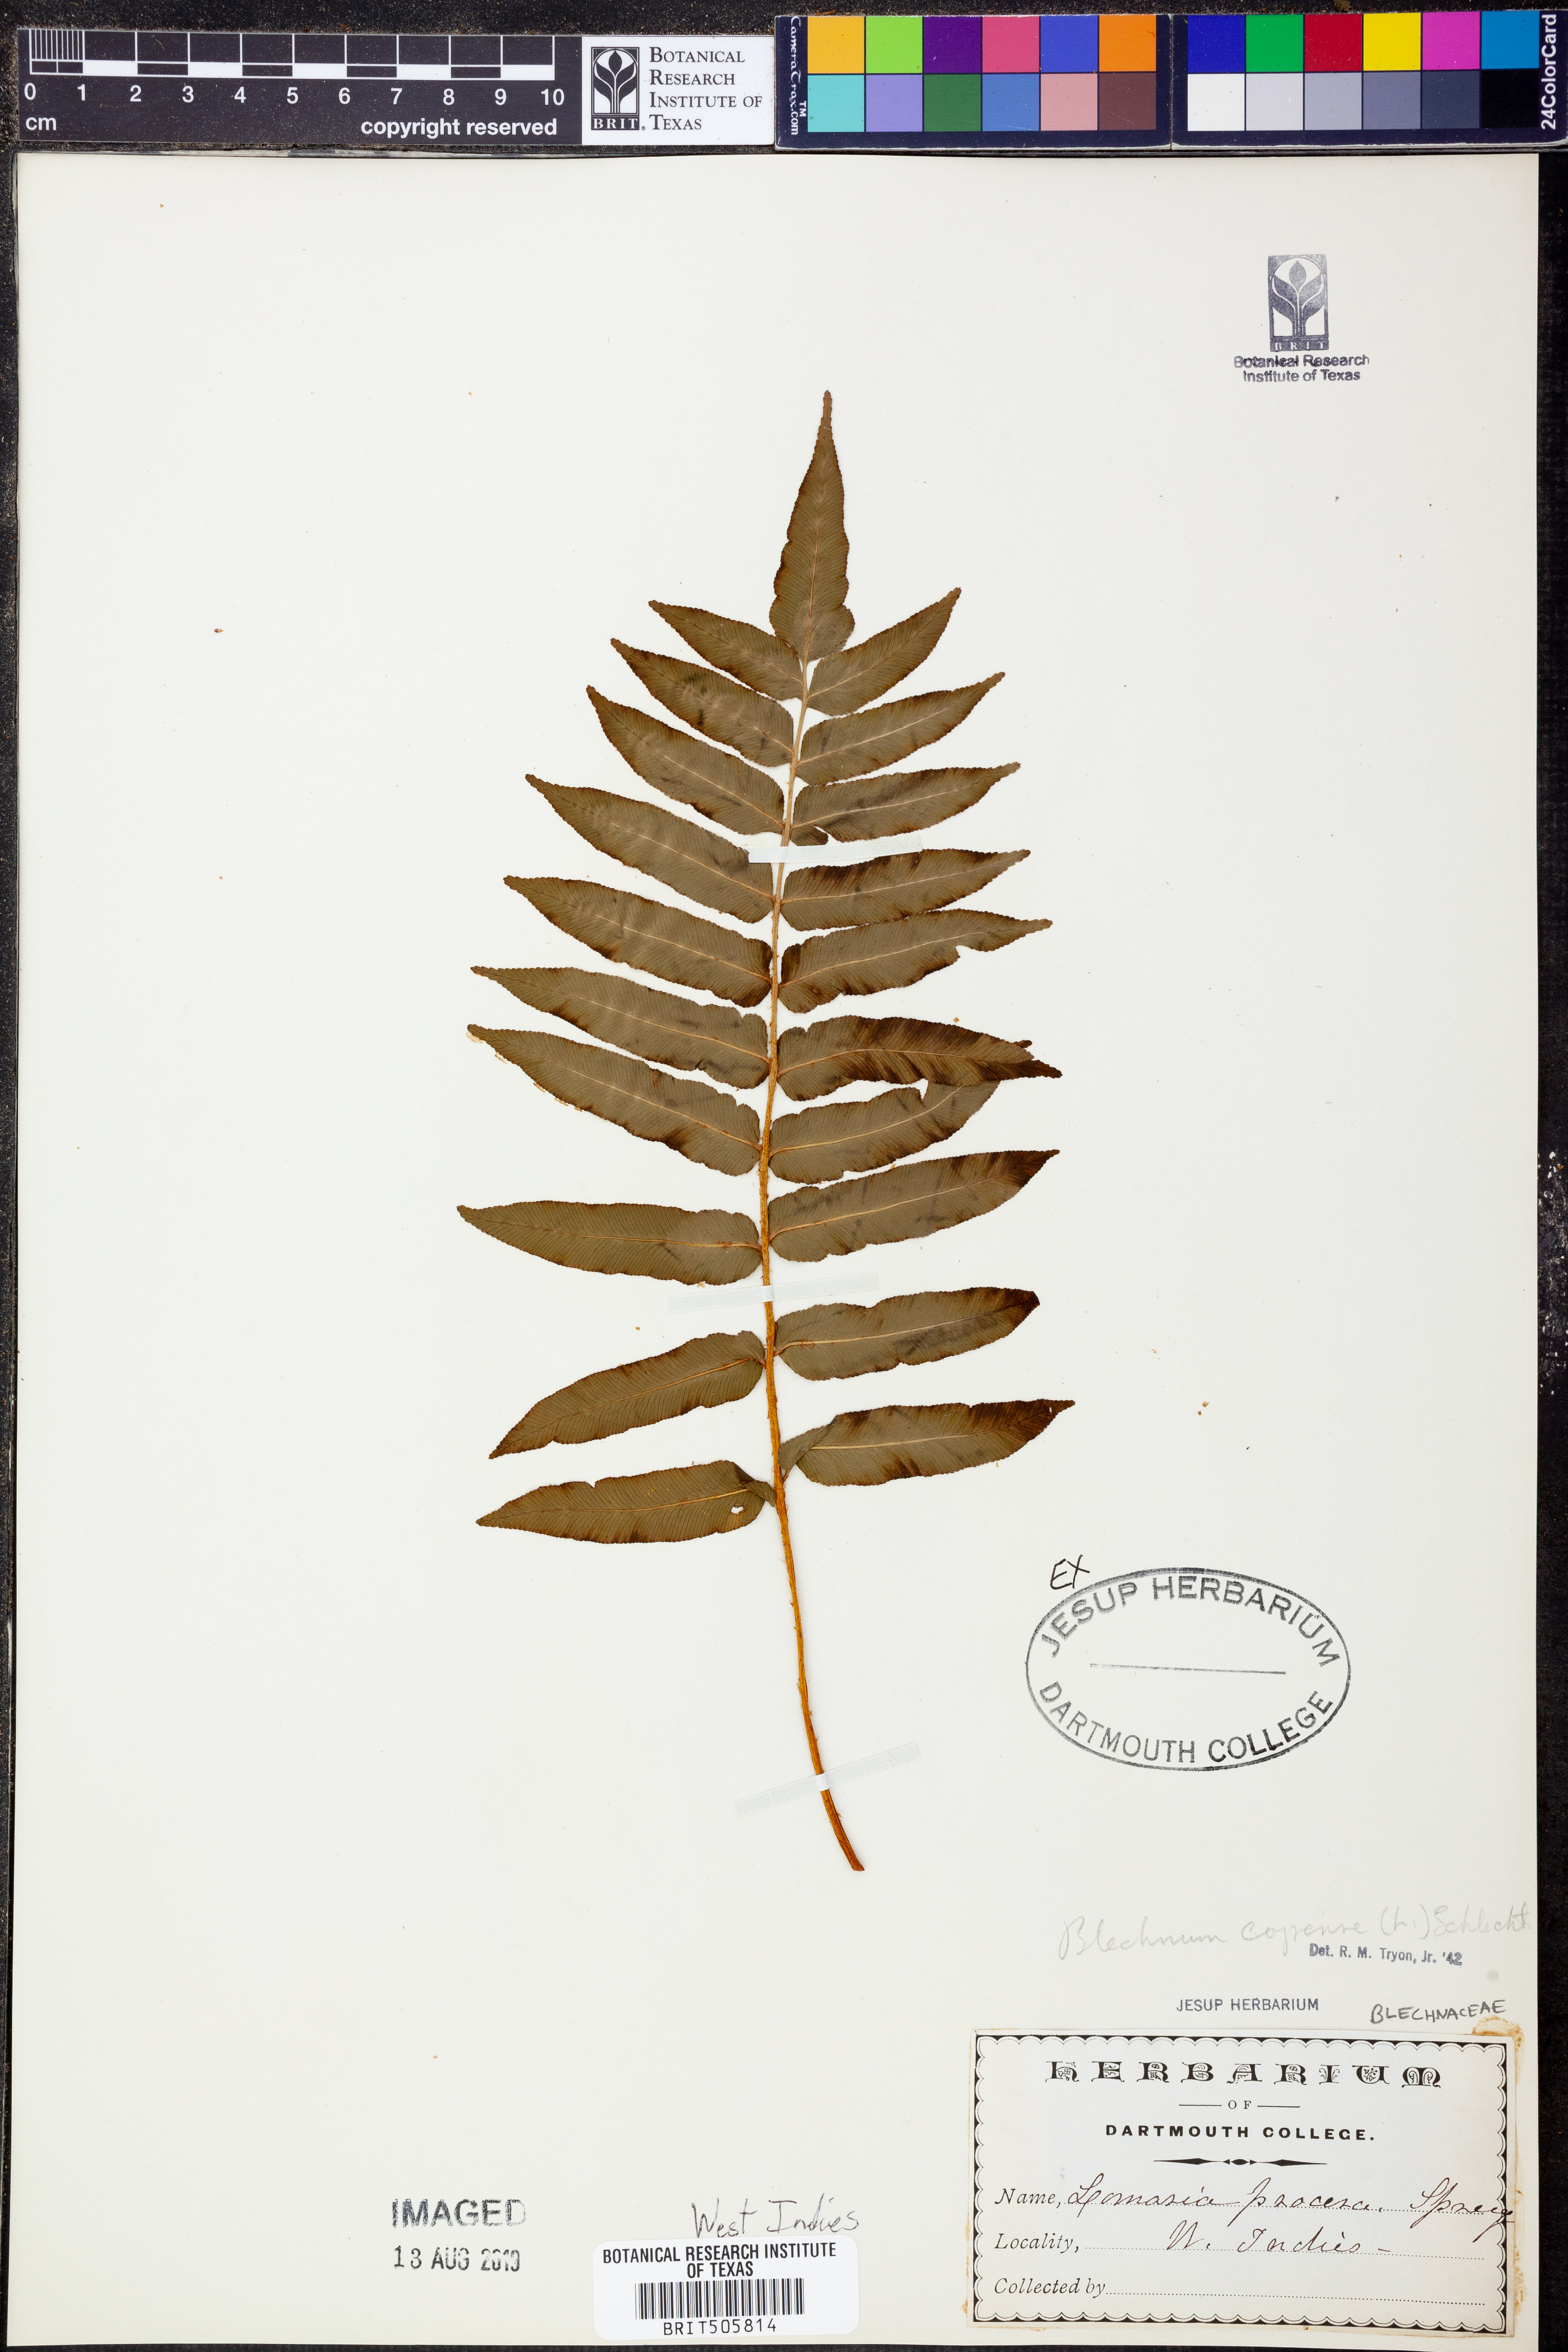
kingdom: Plantae
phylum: Tracheophyta
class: Polypodiopsida
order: Polypodiales
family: Blechnaceae
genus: Parablechnum
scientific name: Parablechnum capense
